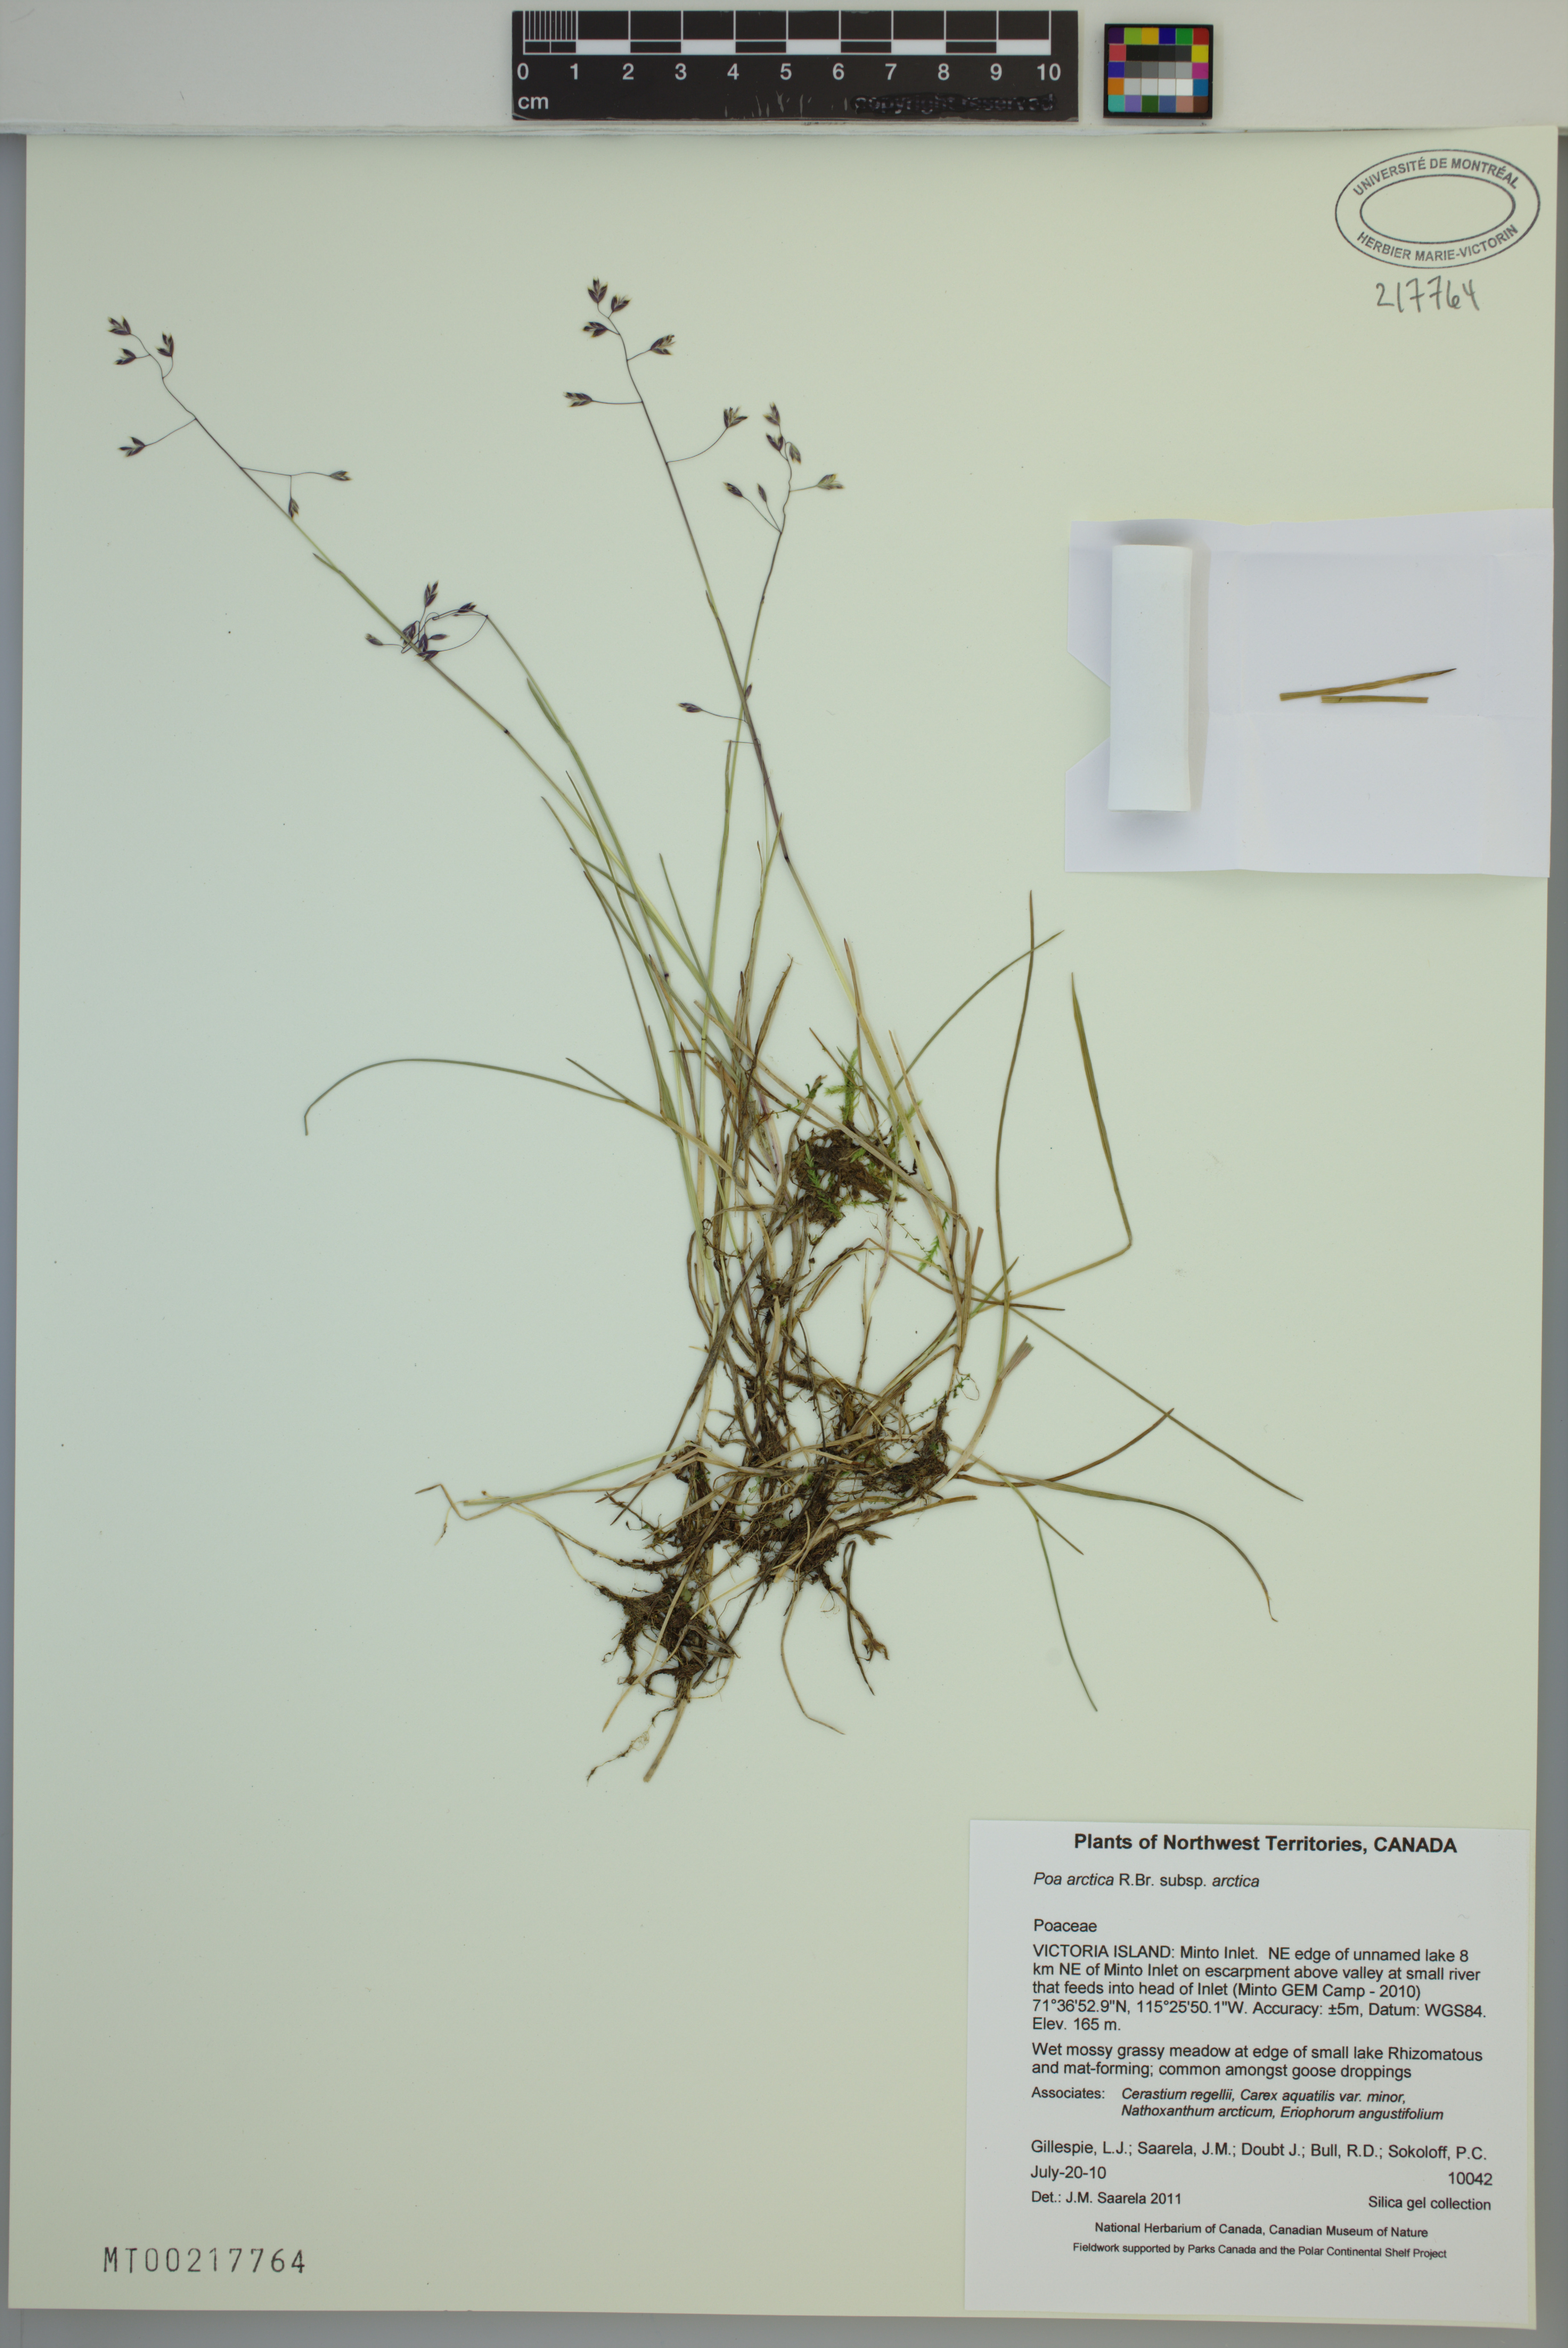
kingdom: Plantae
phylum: Tracheophyta
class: Liliopsida
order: Poales
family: Poaceae
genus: Poa
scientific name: Poa arctica
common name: Arctic bluegrass
